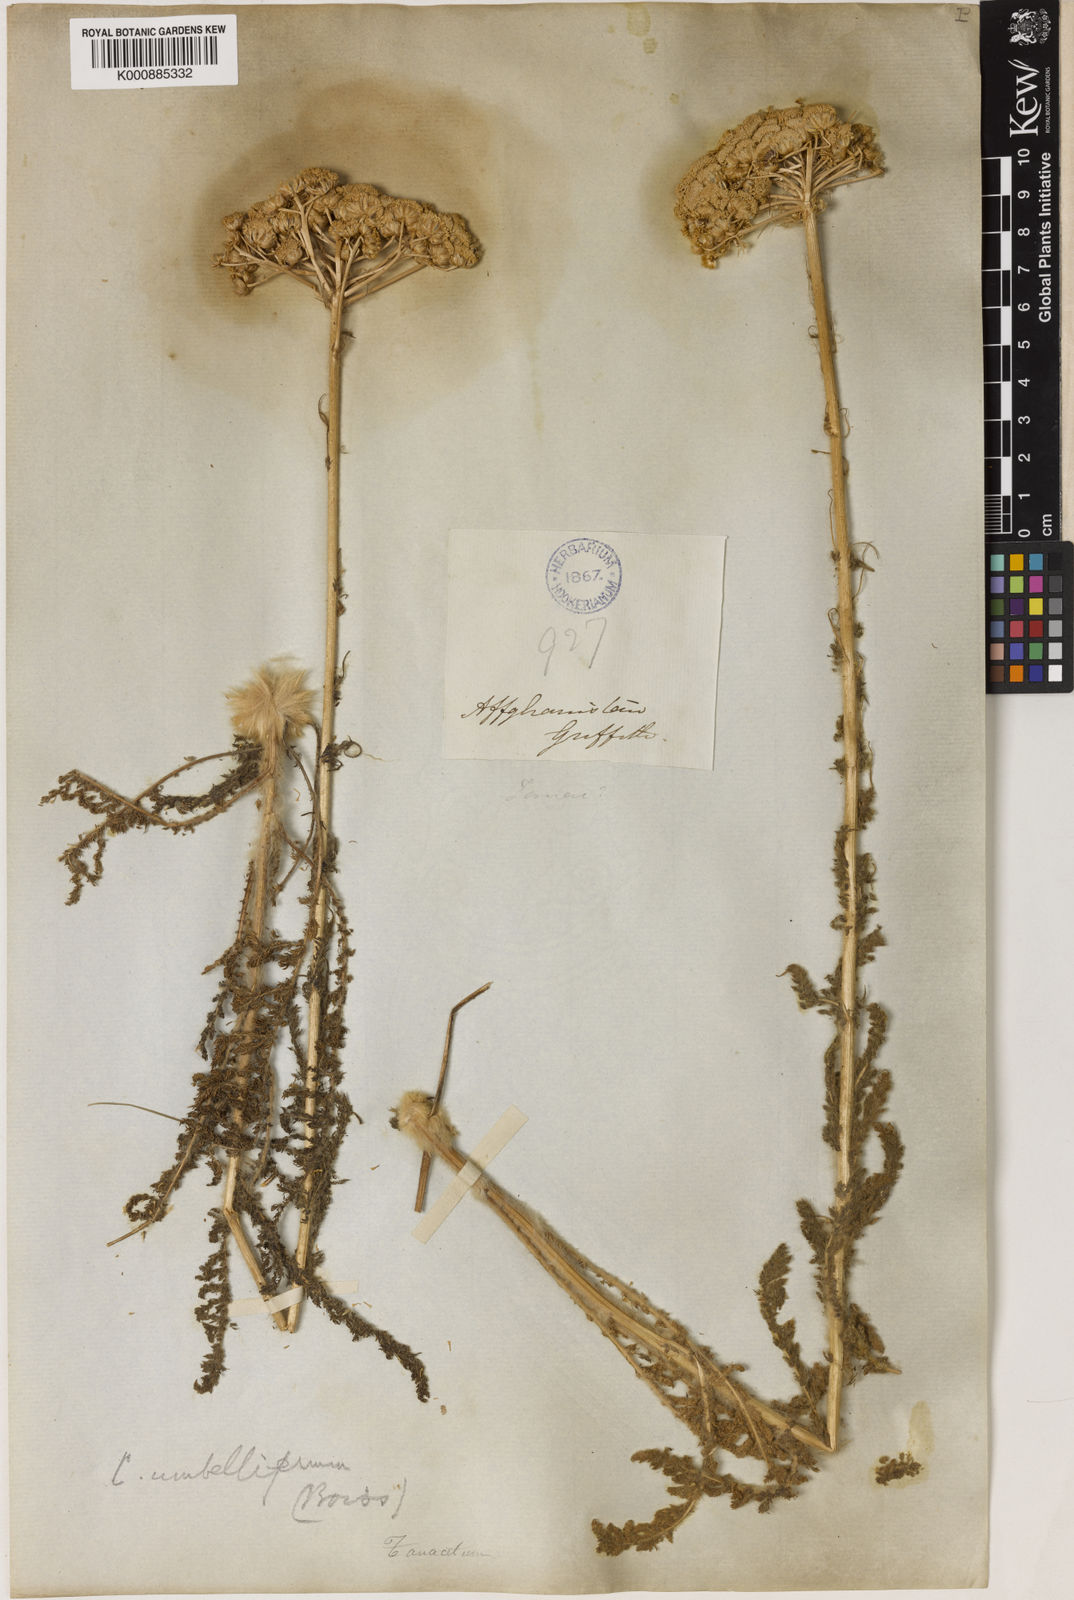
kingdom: Plantae
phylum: Tracheophyta
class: Magnoliopsida
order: Asterales
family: Asteraceae
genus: Pseudohandelia
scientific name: Pseudohandelia
